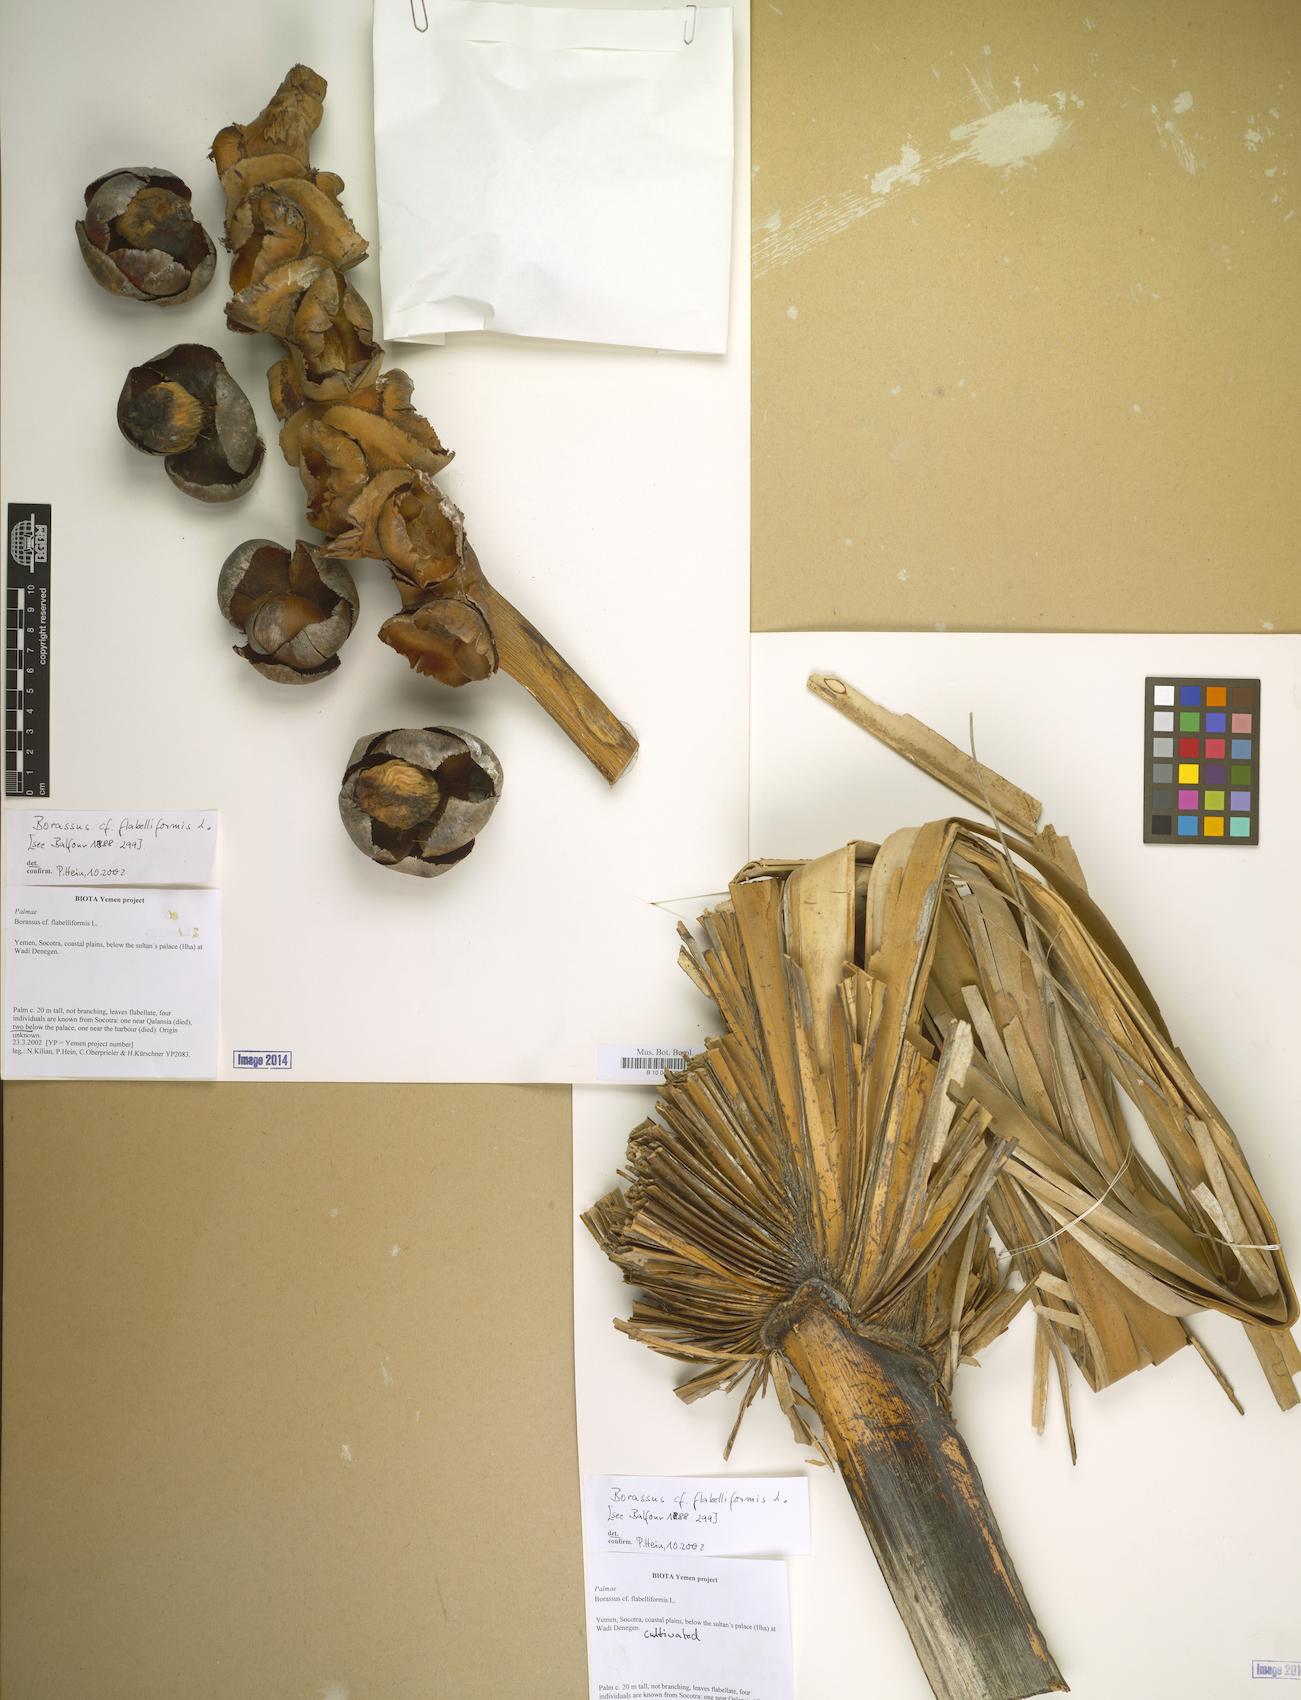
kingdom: Plantae
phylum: Tracheophyta
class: Liliopsida
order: Arecales
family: Arecaceae
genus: Borassus
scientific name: Borassus flabellifer
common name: Palmyra palm
